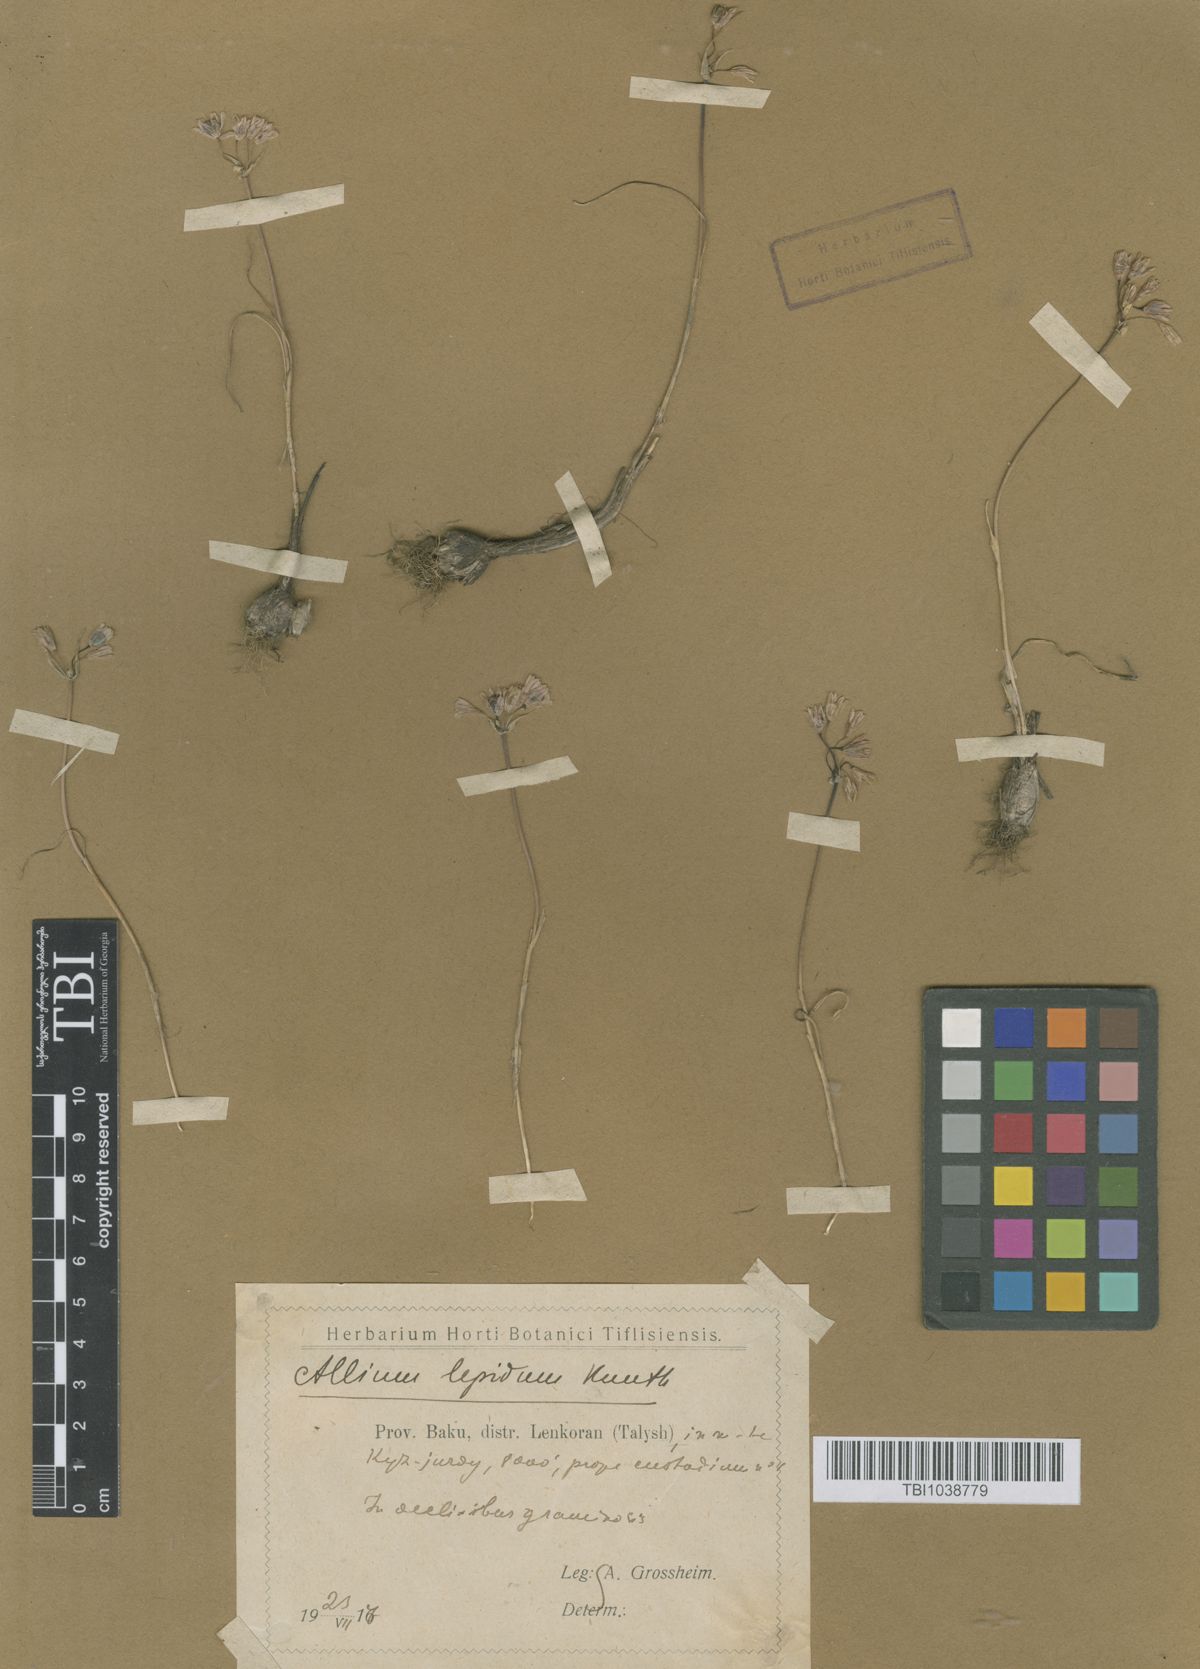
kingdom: Plantae
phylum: Tracheophyta
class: Liliopsida
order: Asparagales
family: Amaryllidaceae
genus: Allium
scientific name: Allium kunthianum
